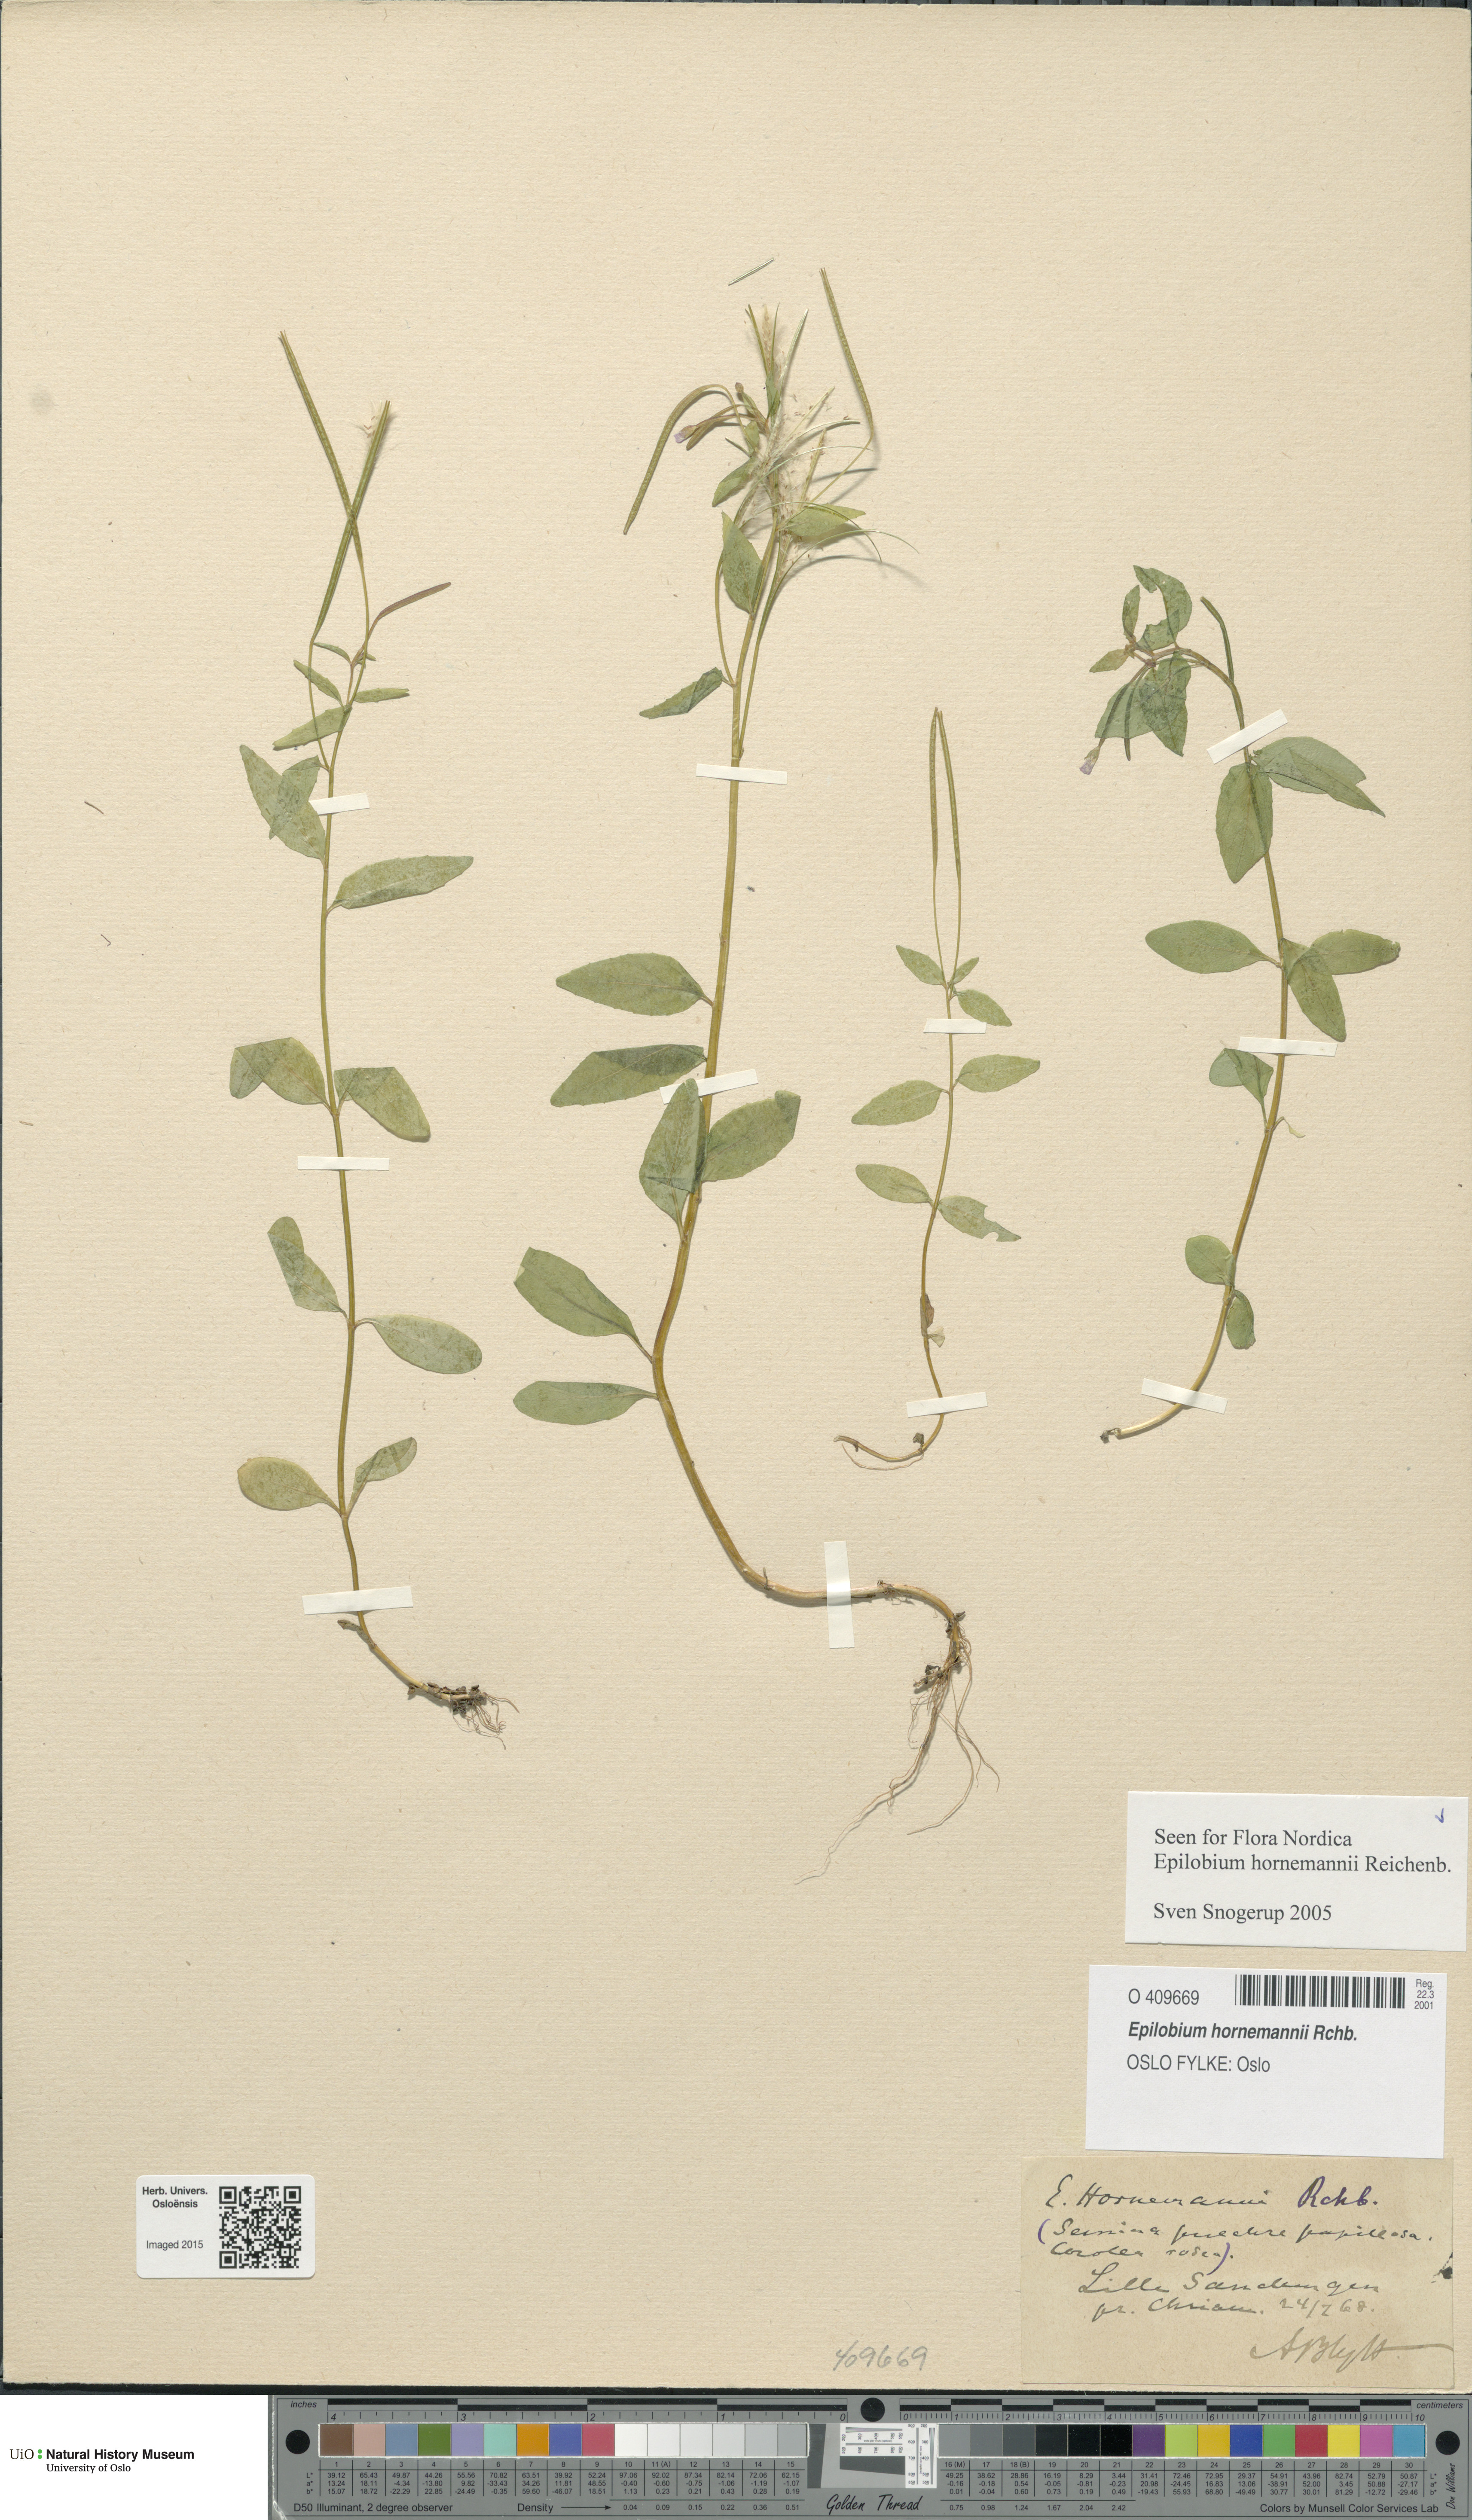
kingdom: Plantae
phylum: Tracheophyta
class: Magnoliopsida
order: Myrtales
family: Onagraceae
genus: Epilobium
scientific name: Epilobium hornemannii
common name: Hornemann's willowherb
